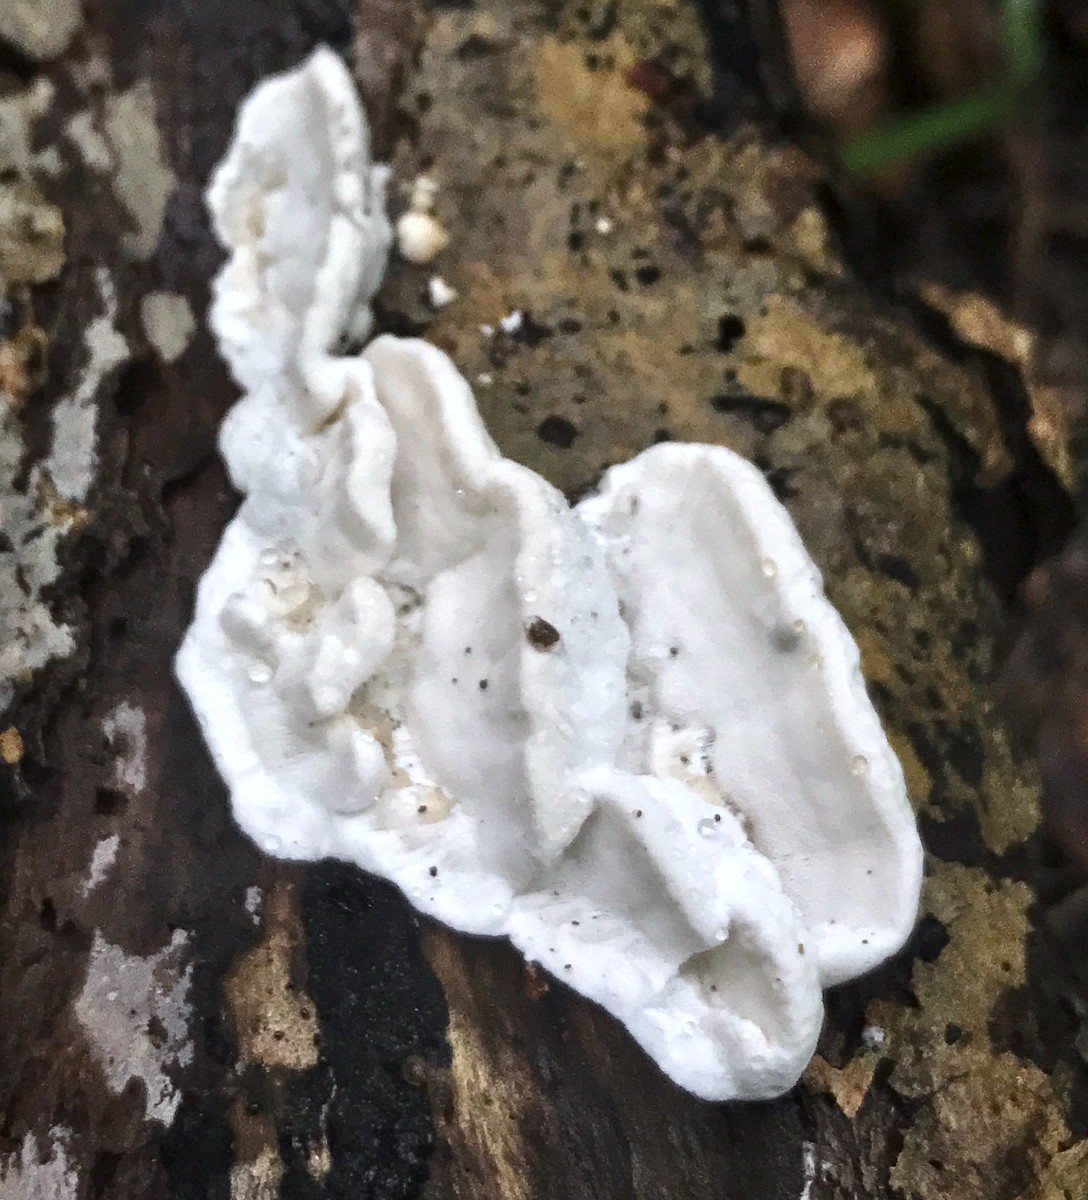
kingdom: Fungi
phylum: Basidiomycota
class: Agaricomycetes
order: Polyporales
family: Incrustoporiaceae
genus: Skeletocutis
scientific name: Skeletocutis nemoralis
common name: stor krystalporesvamp
